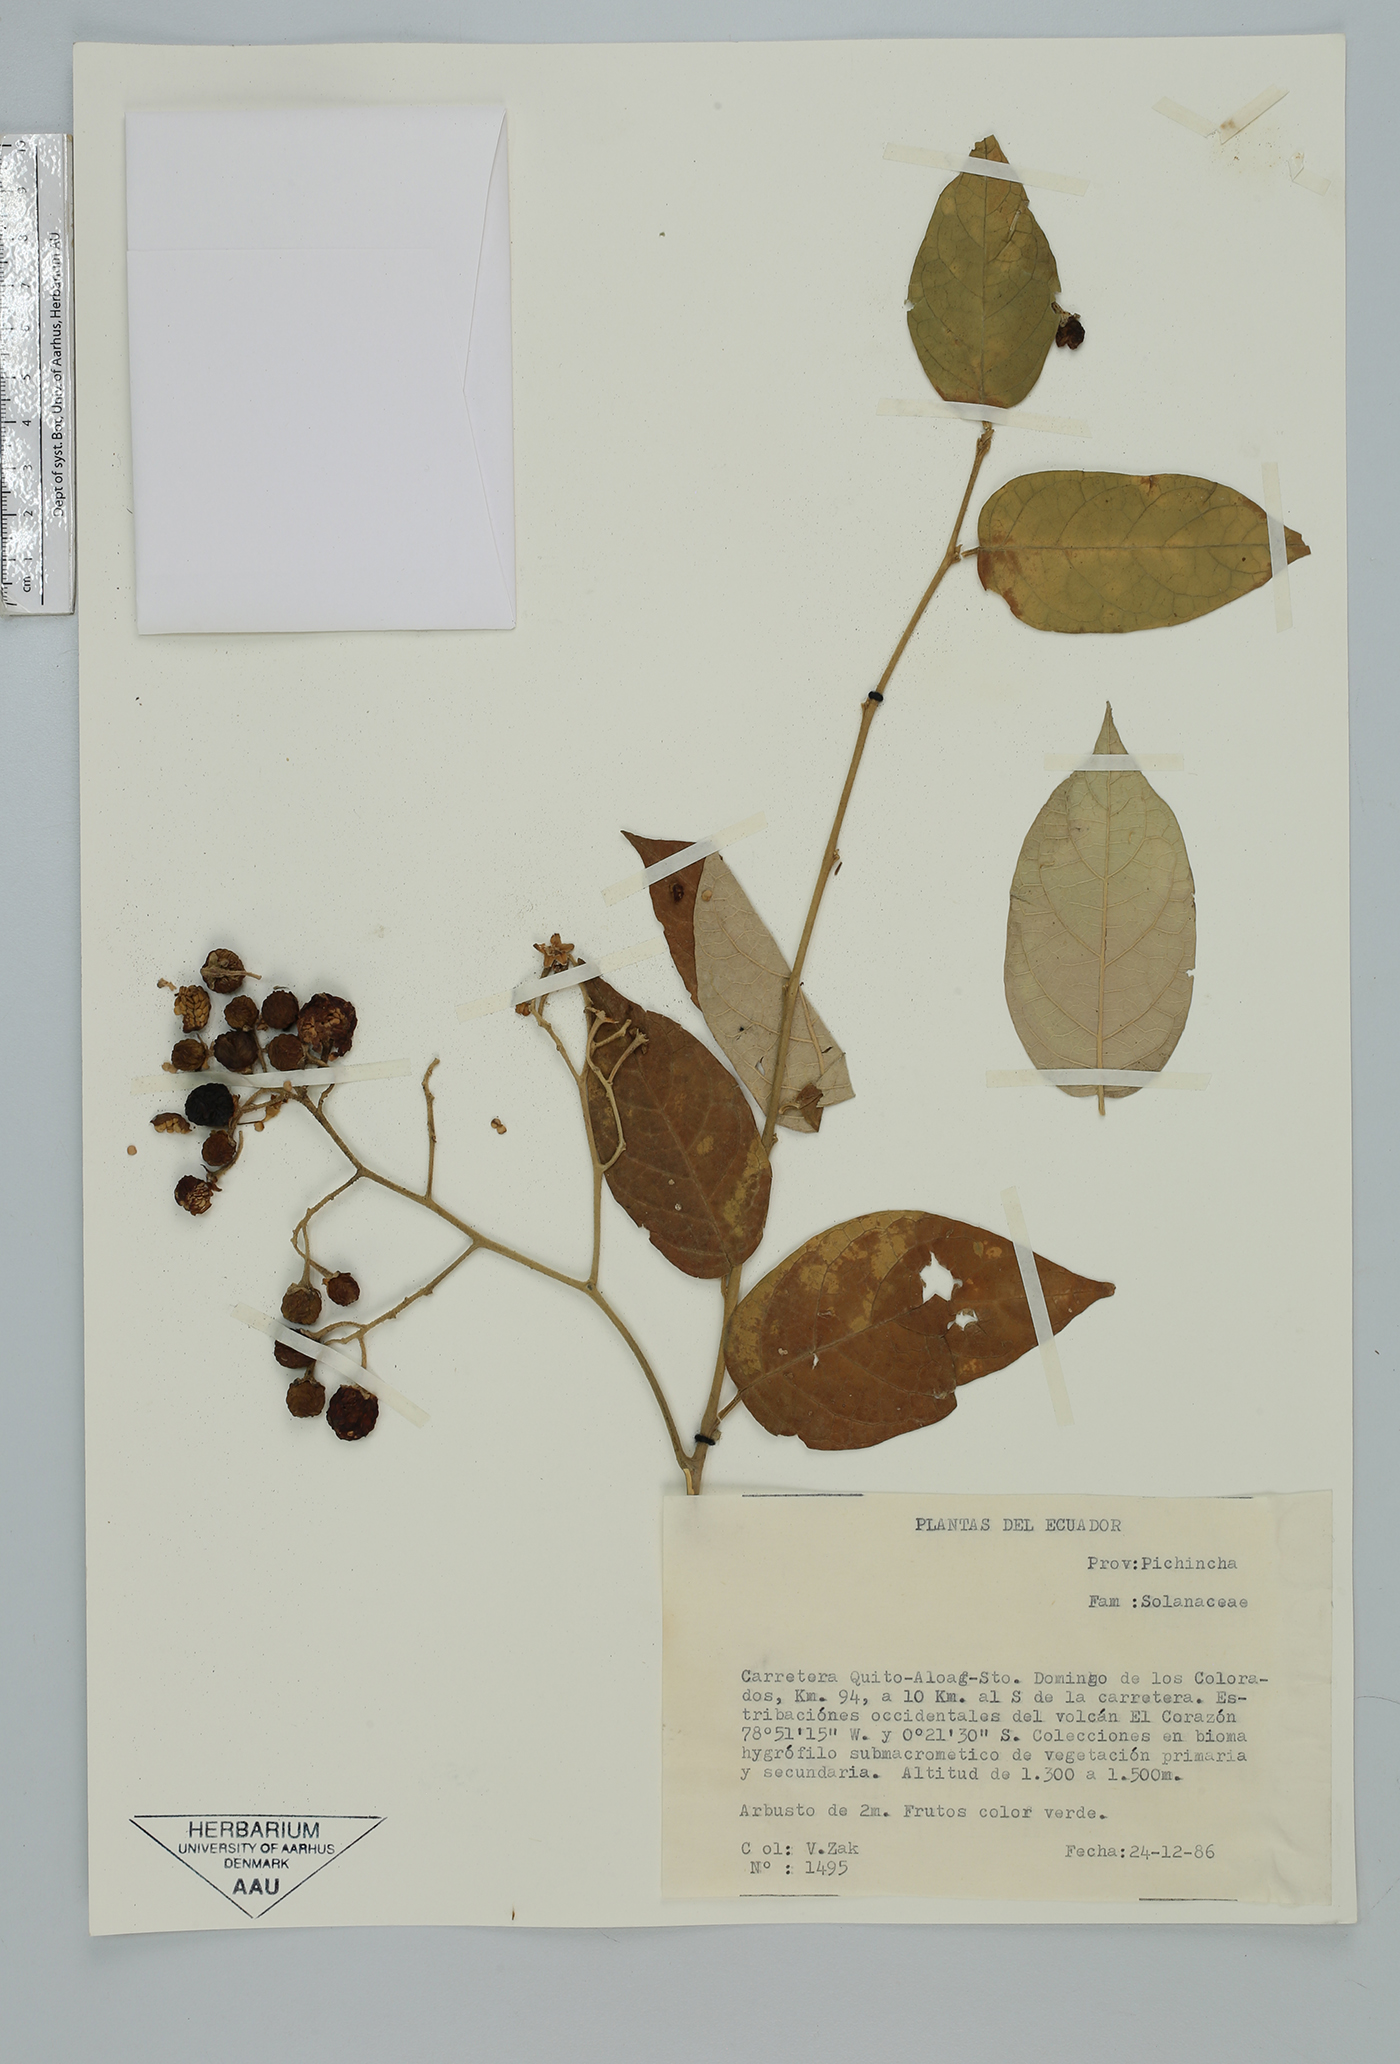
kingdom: Plantae
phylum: Tracheophyta
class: Magnoliopsida
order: Solanales
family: Solanaceae
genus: Solanum
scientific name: Solanum
